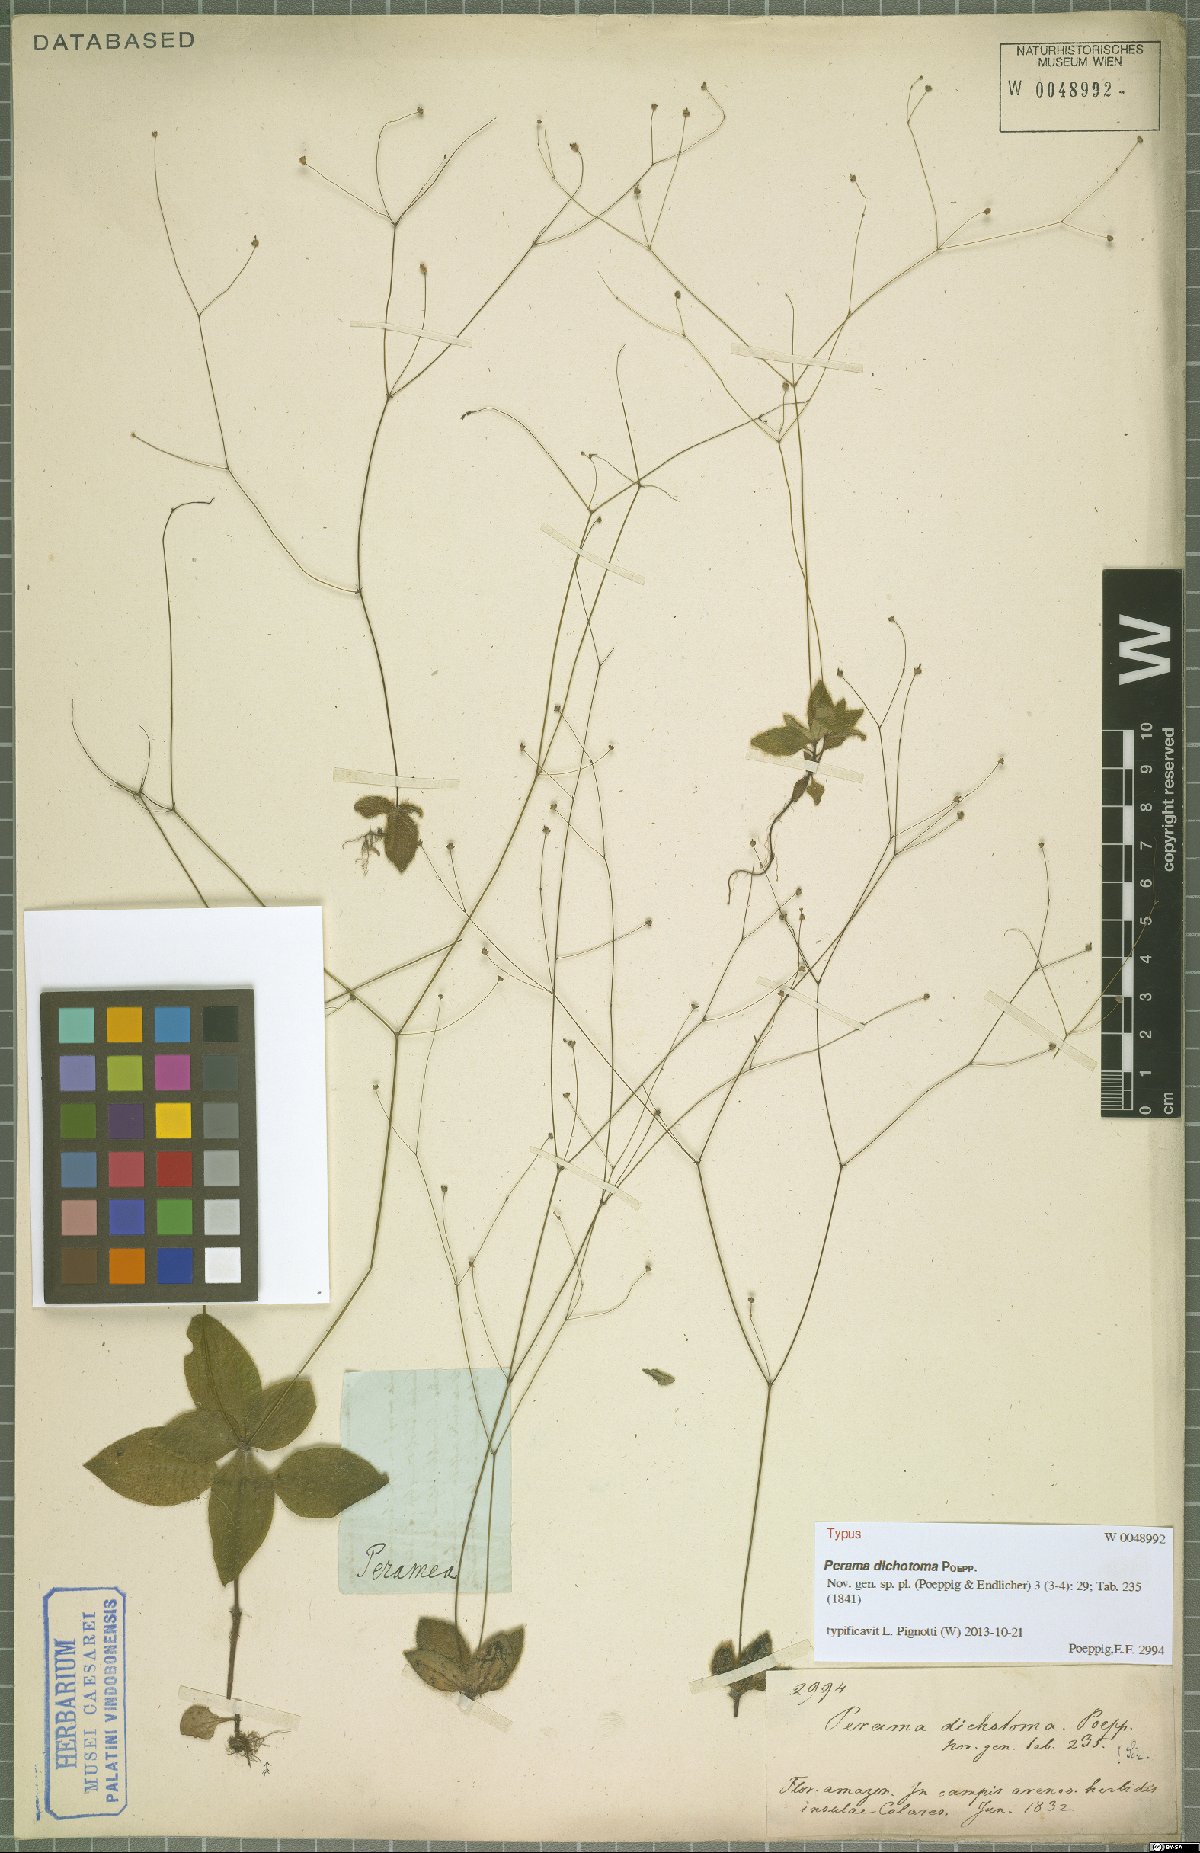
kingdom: Plantae
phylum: Tracheophyta
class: Magnoliopsida
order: Gentianales
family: Rubiaceae
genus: Perama
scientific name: Perama dichotoma
